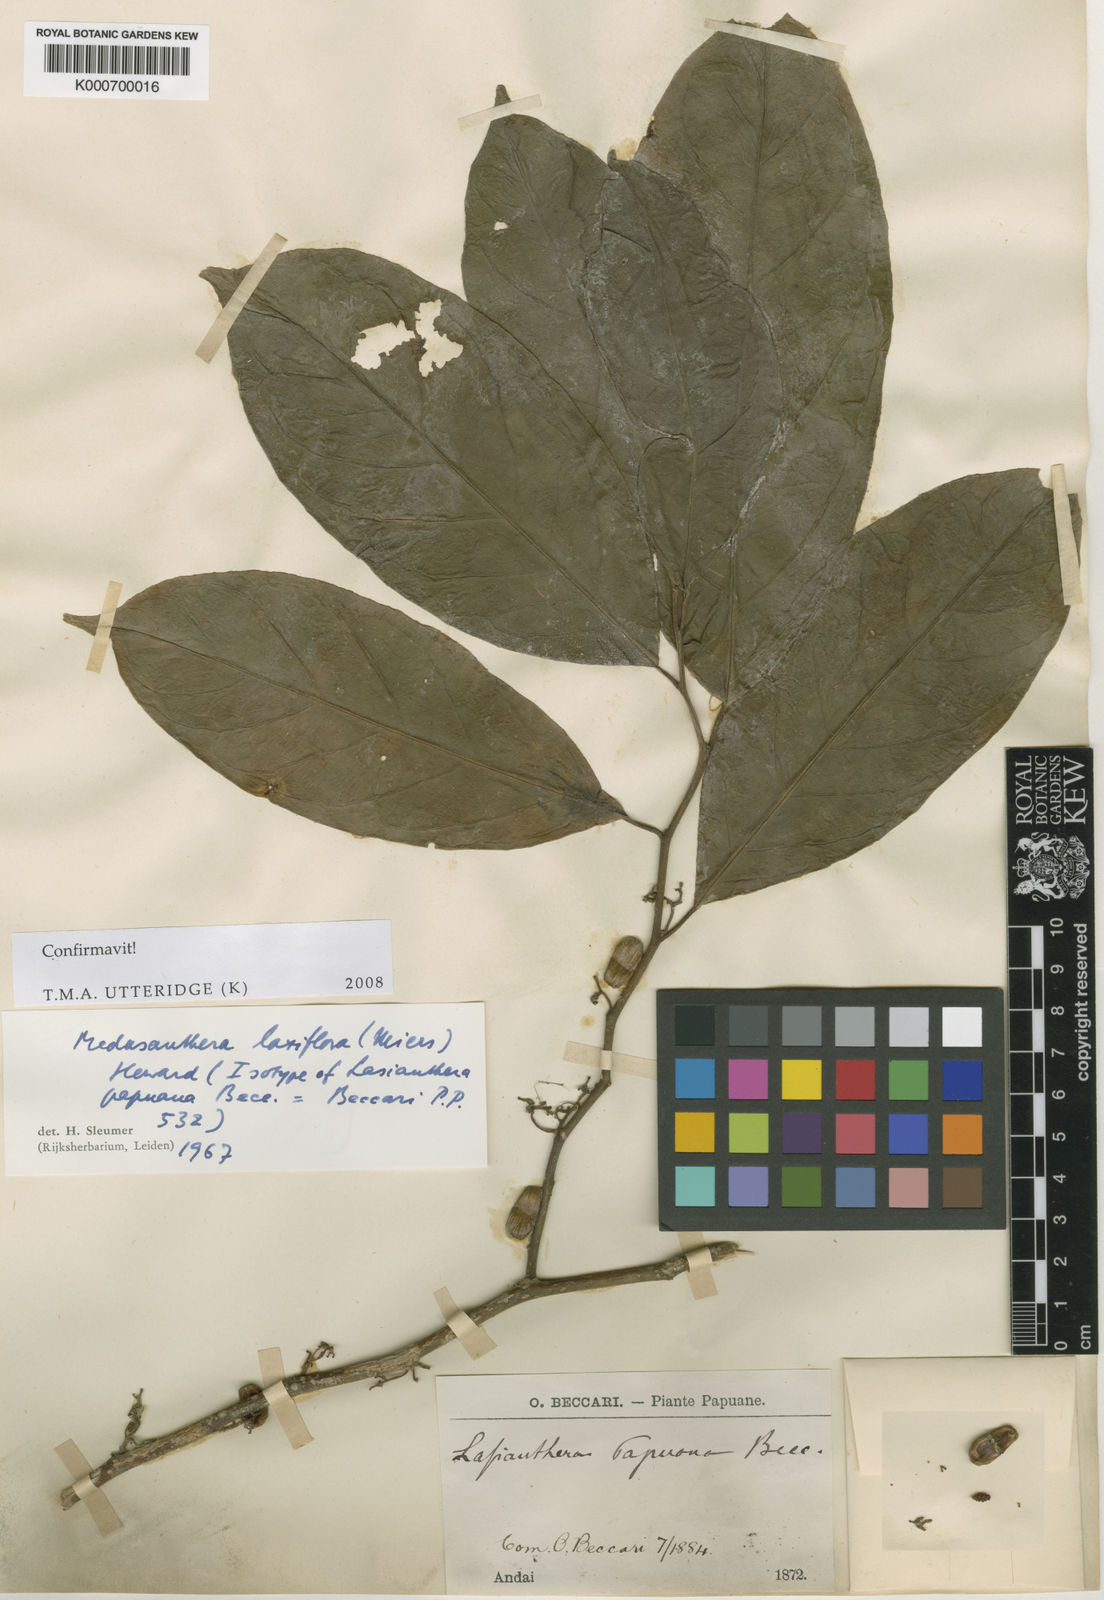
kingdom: Plantae
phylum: Tracheophyta
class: Magnoliopsida
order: Cardiopteridales
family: Stemonuraceae
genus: Medusanthera
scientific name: Medusanthera laxiflora
